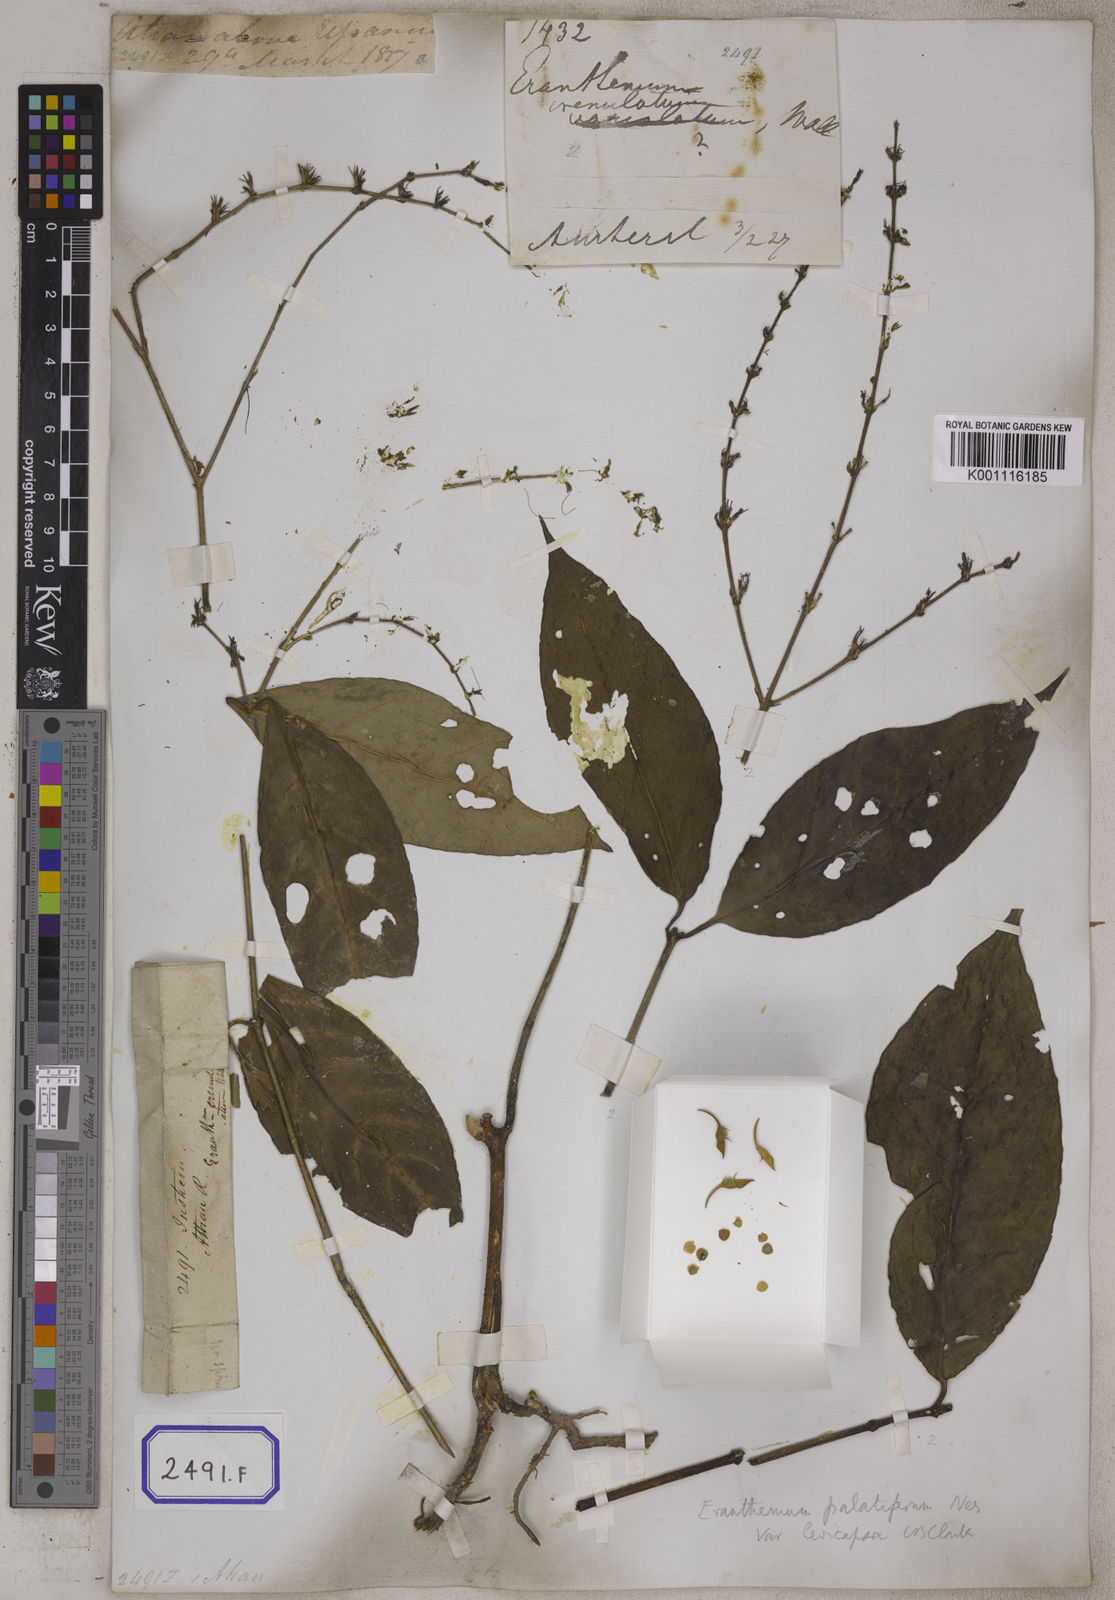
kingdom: Plantae
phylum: Tracheophyta
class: Magnoliopsida
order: Lamiales
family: Acanthaceae
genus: Eranthemum
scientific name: Eranthemum
